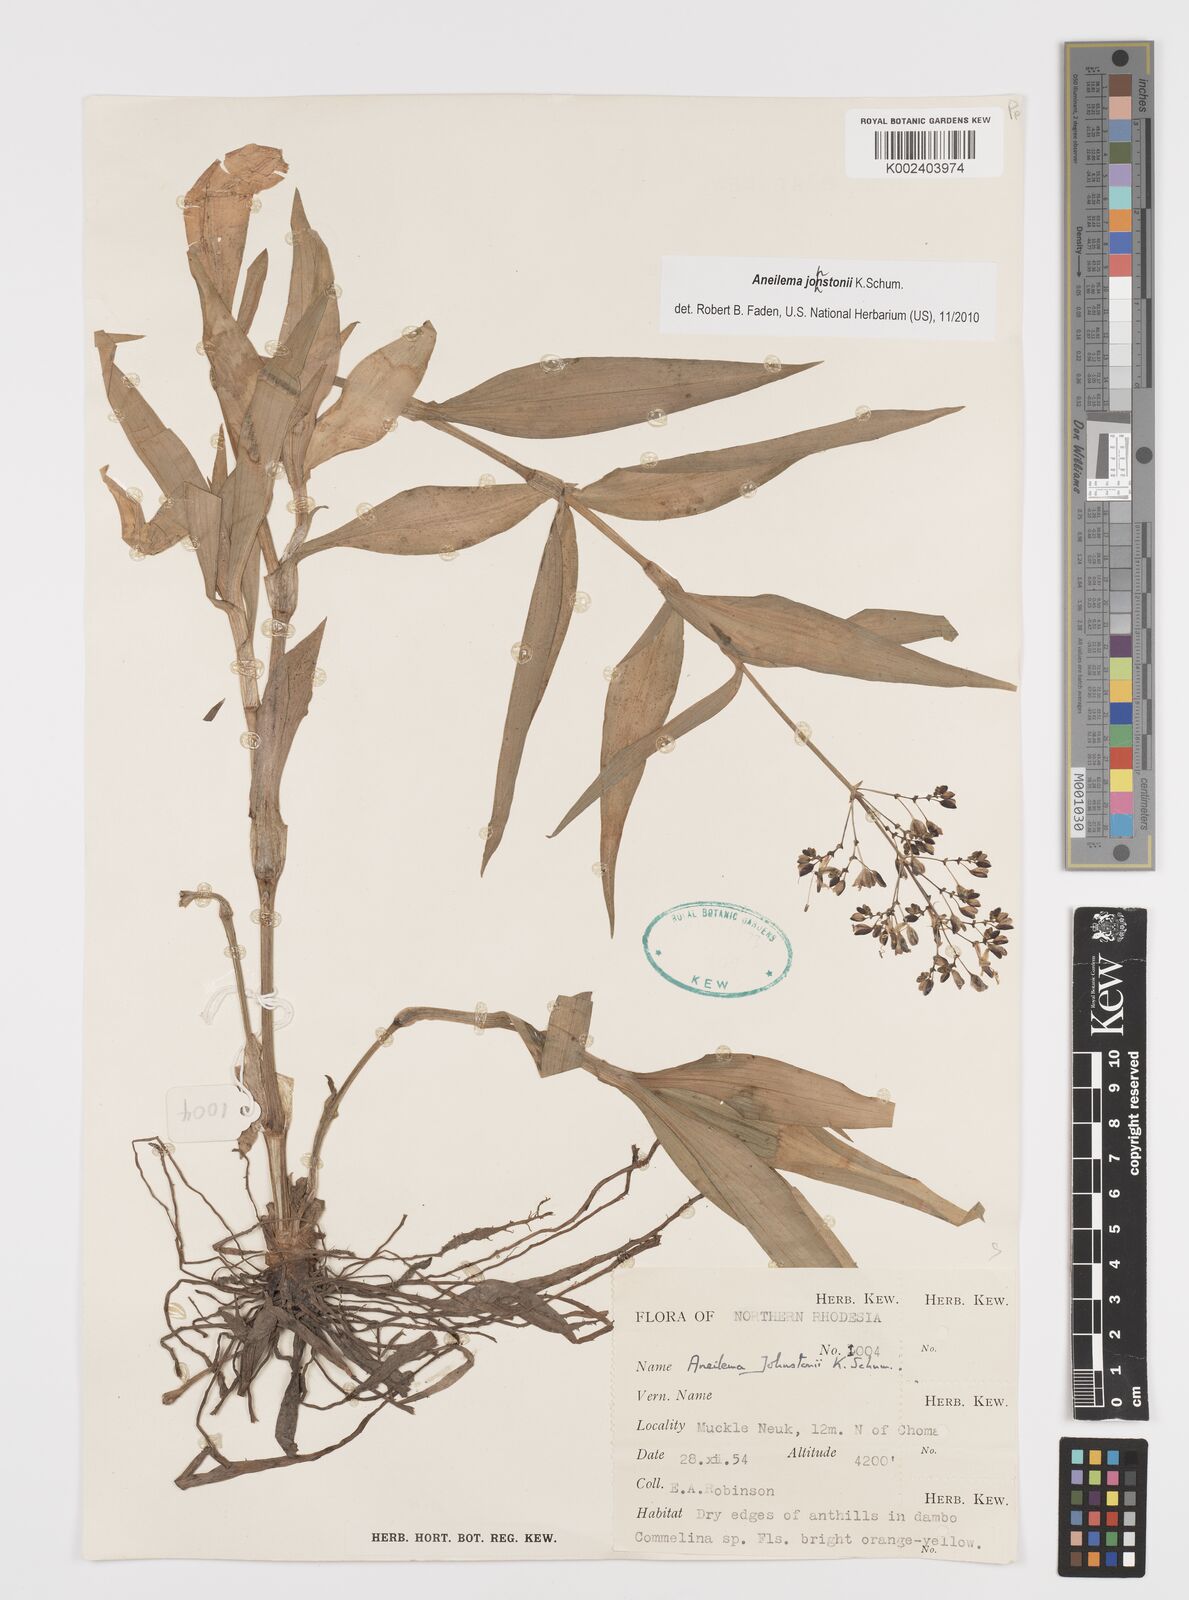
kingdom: Plantae
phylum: Tracheophyta
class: Liliopsida
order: Commelinales
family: Commelinaceae
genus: Aneilema
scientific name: Aneilema johnstonii
